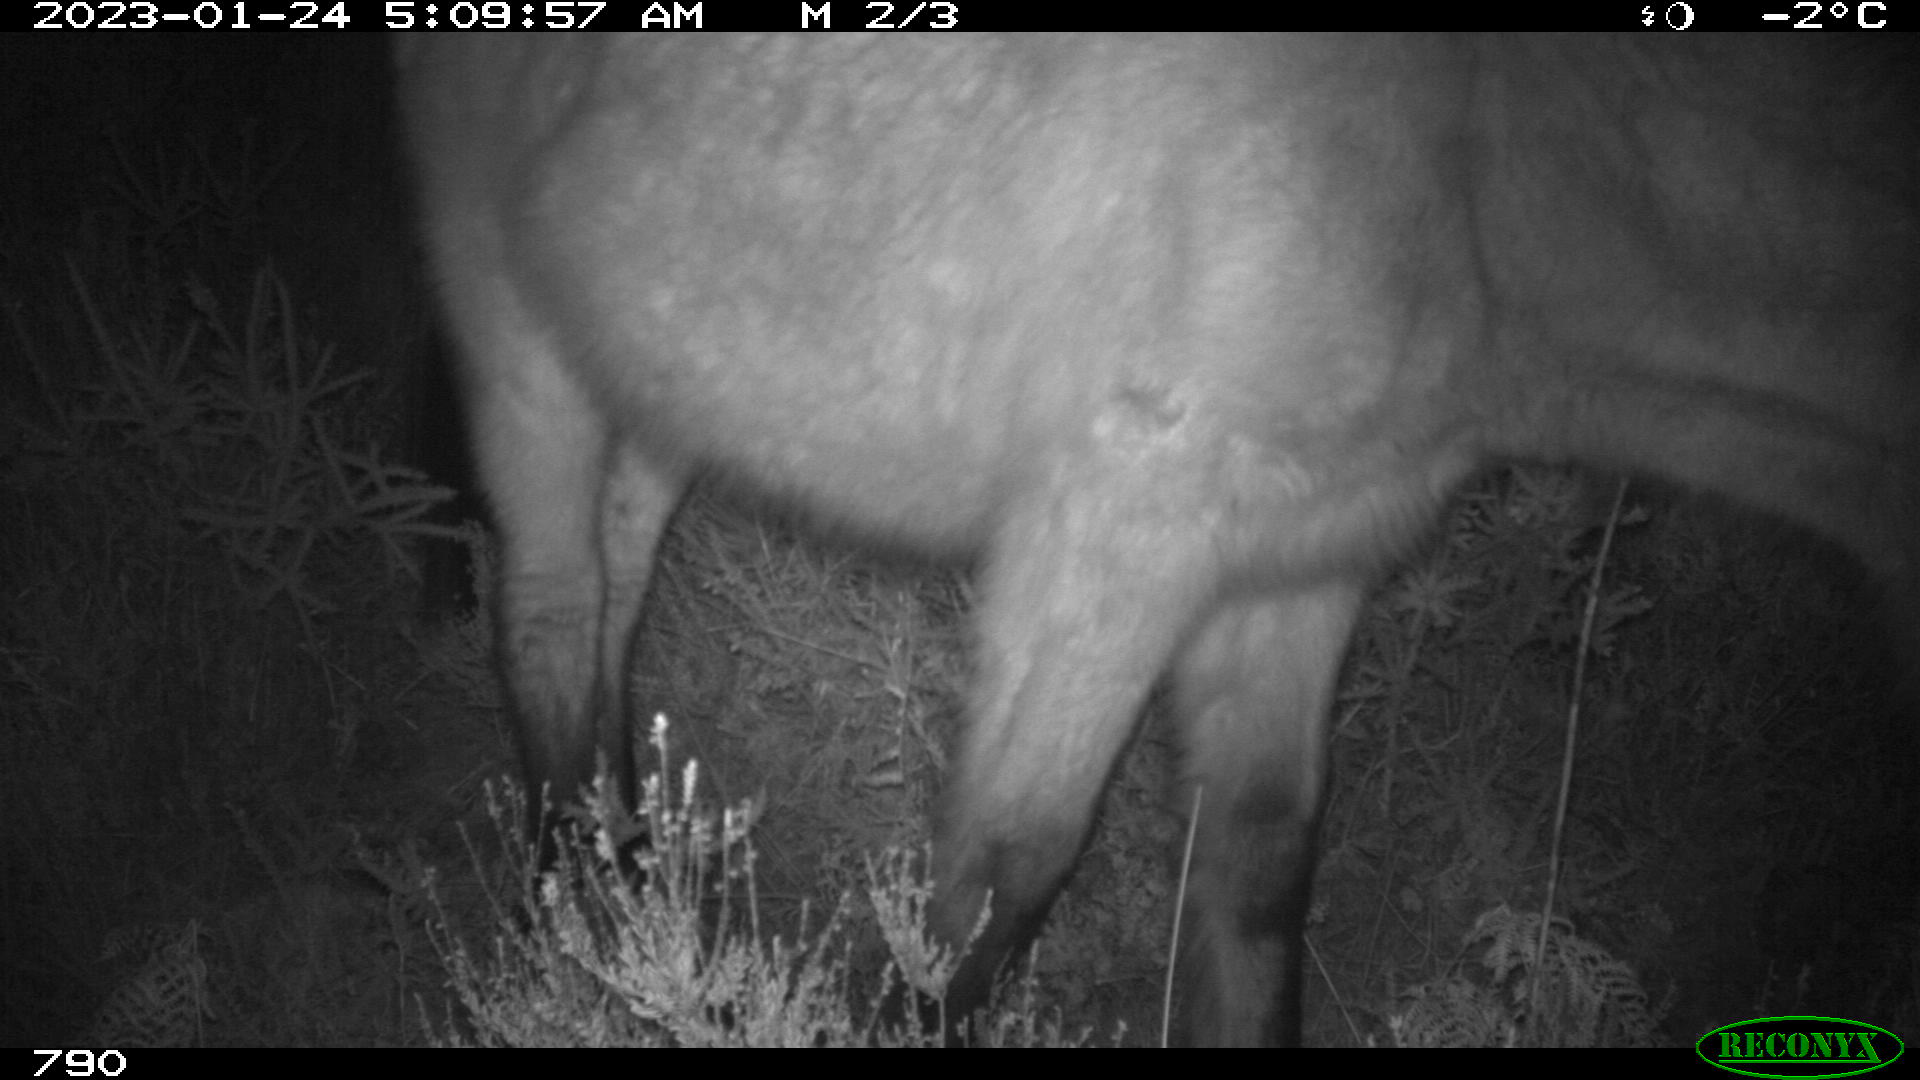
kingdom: Animalia
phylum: Chordata
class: Mammalia
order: Perissodactyla
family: Equidae
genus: Equus
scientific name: Equus caballus
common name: Horse
